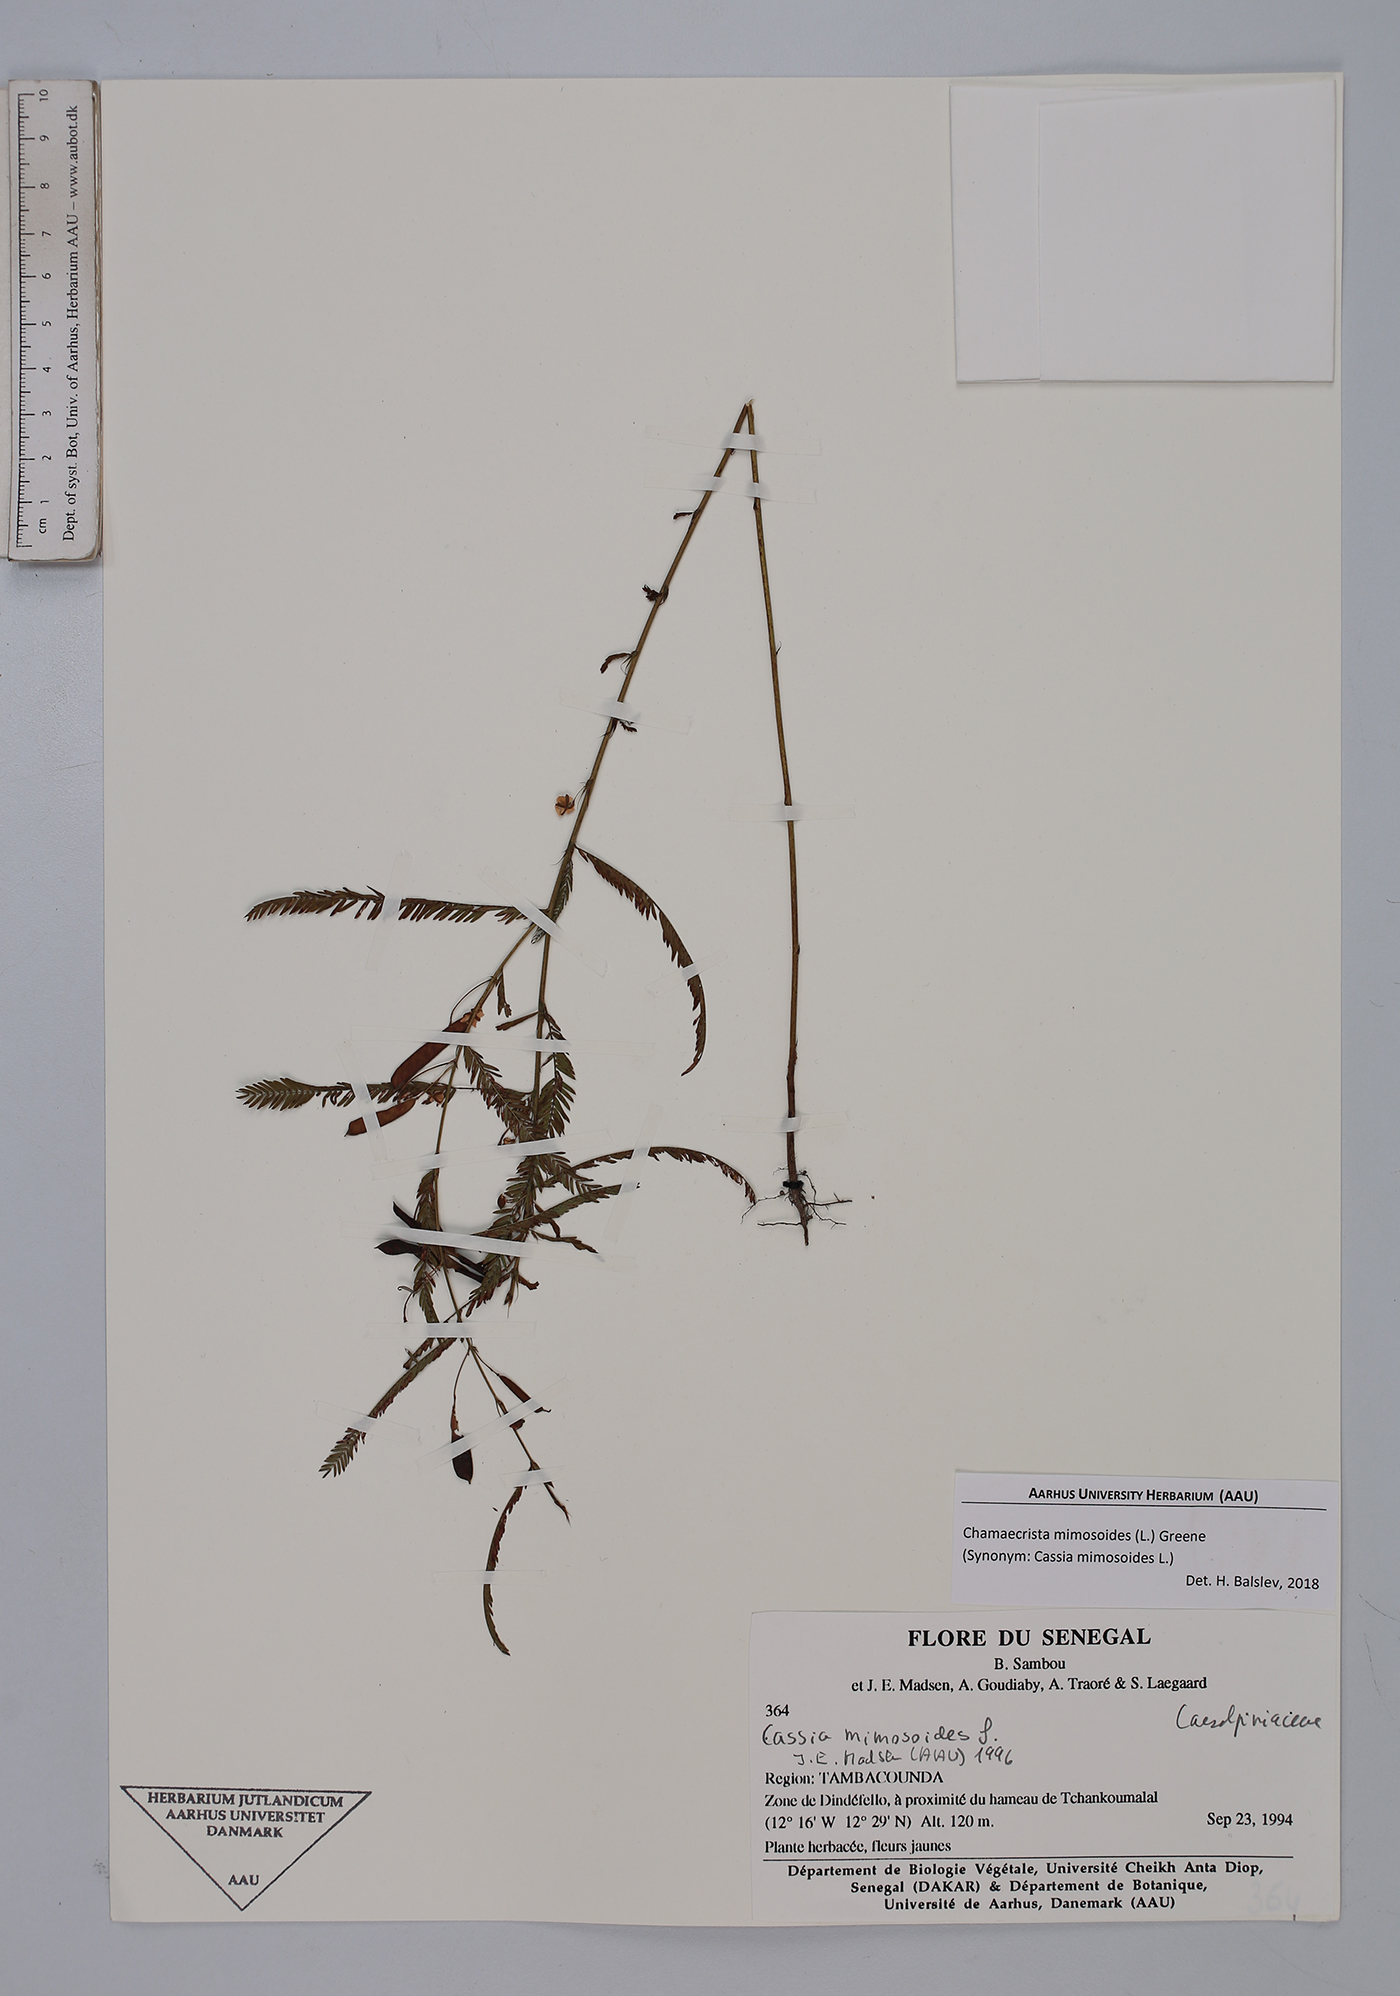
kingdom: Plantae
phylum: Tracheophyta
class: Magnoliopsida
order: Fabales
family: Fabaceae
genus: Chamaecrista
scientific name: Chamaecrista mimosoides
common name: Fish-bone cassia
